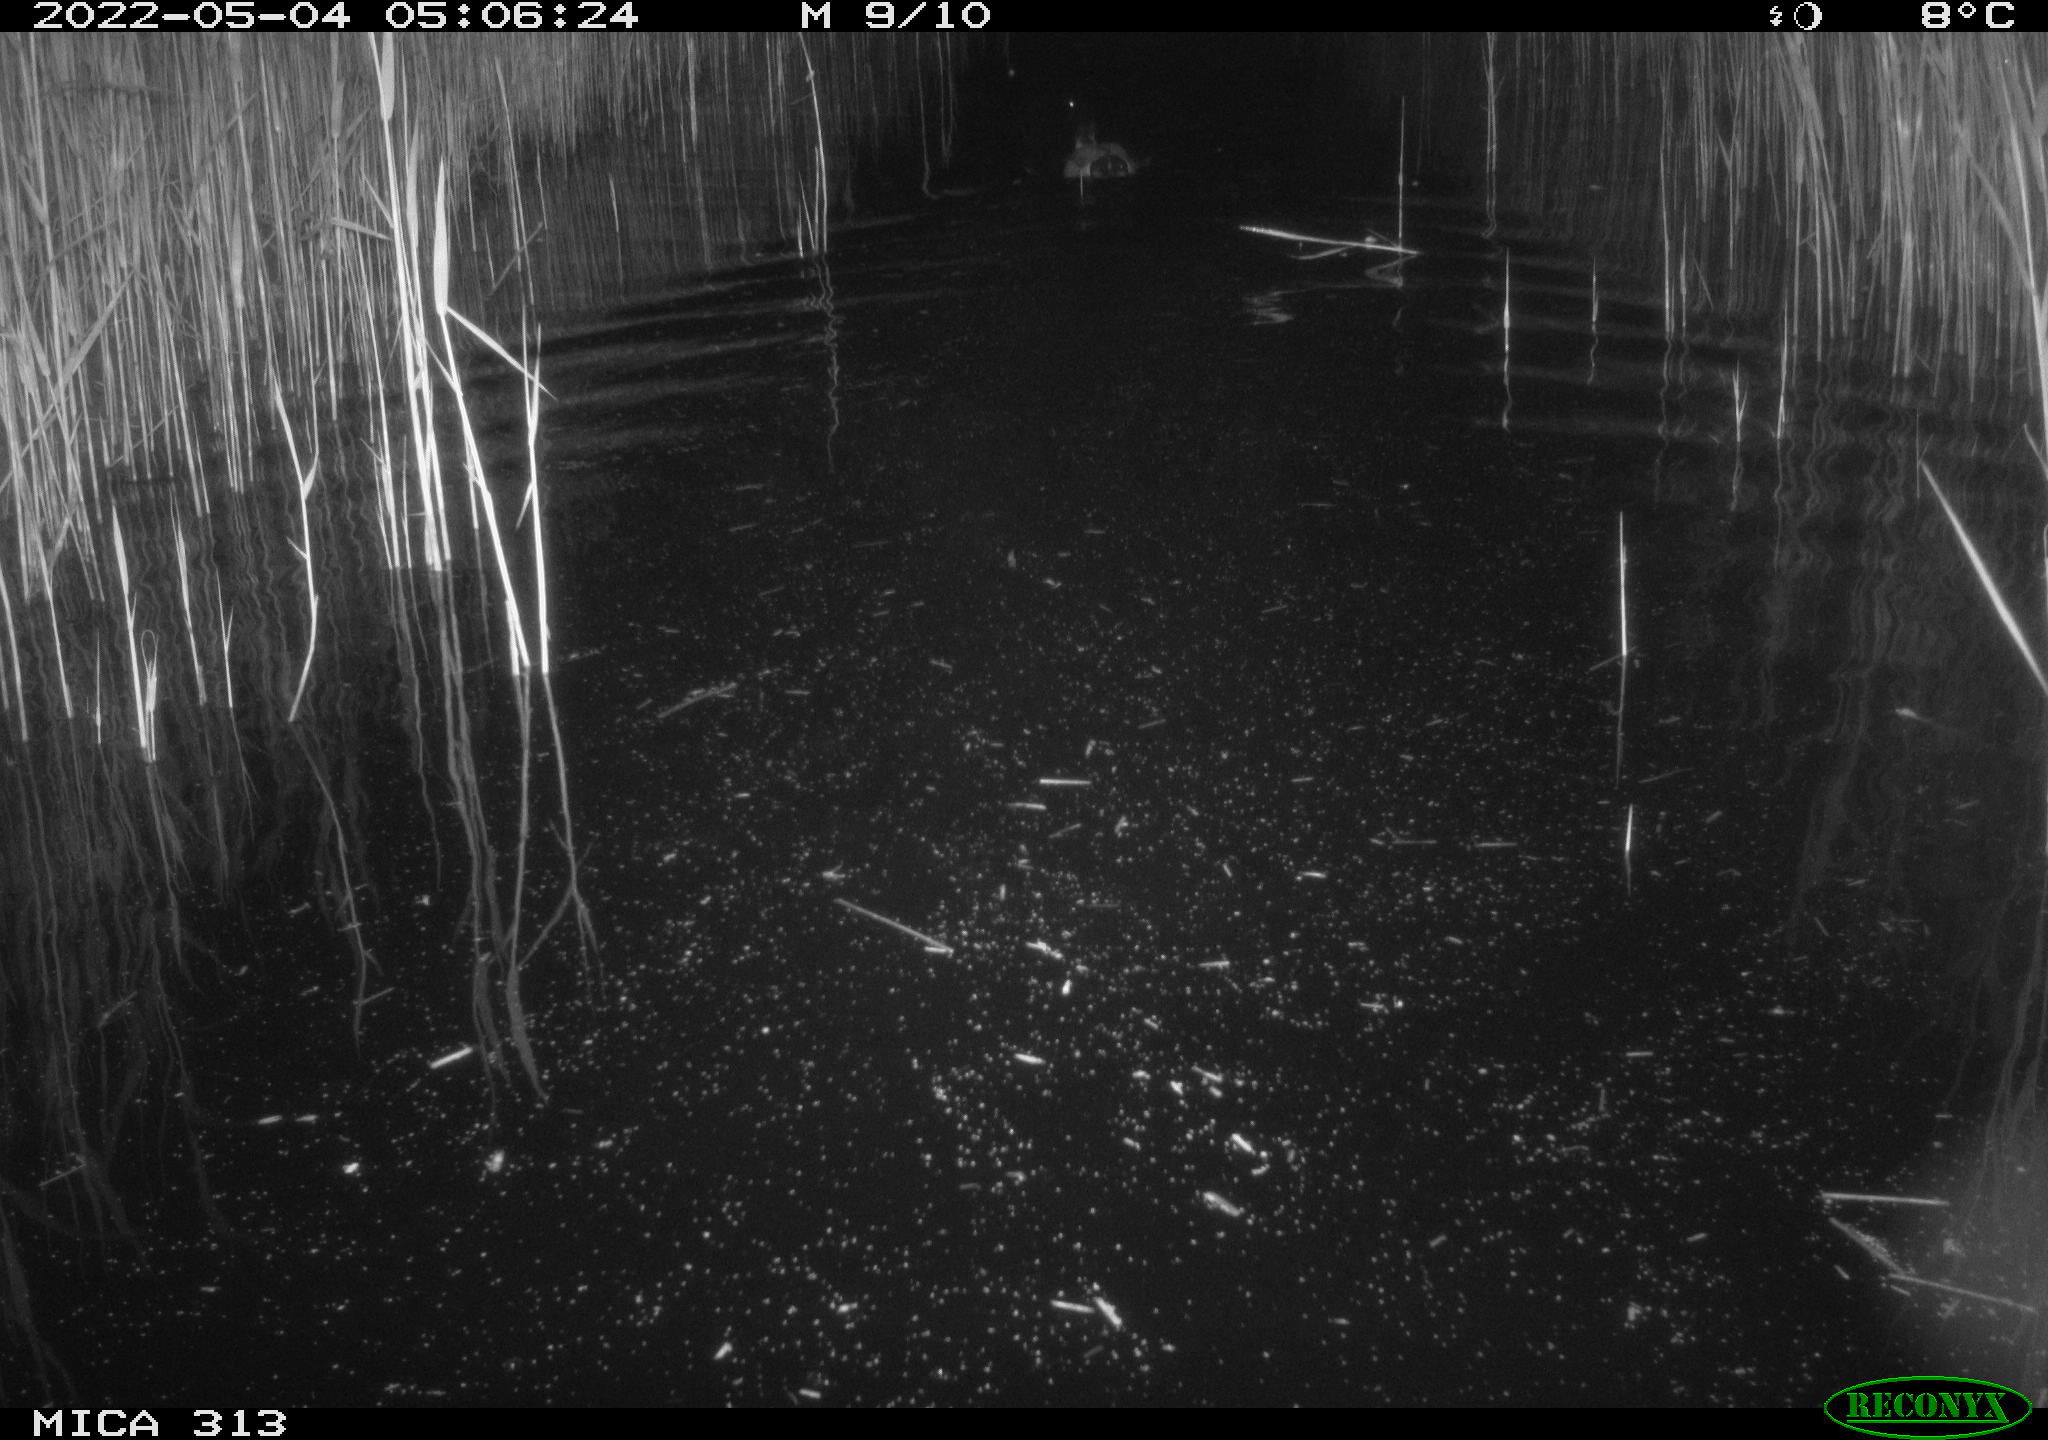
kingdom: Animalia
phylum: Chordata
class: Aves
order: Anseriformes
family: Anatidae
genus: Anas
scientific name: Anas platyrhynchos
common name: Mallard
